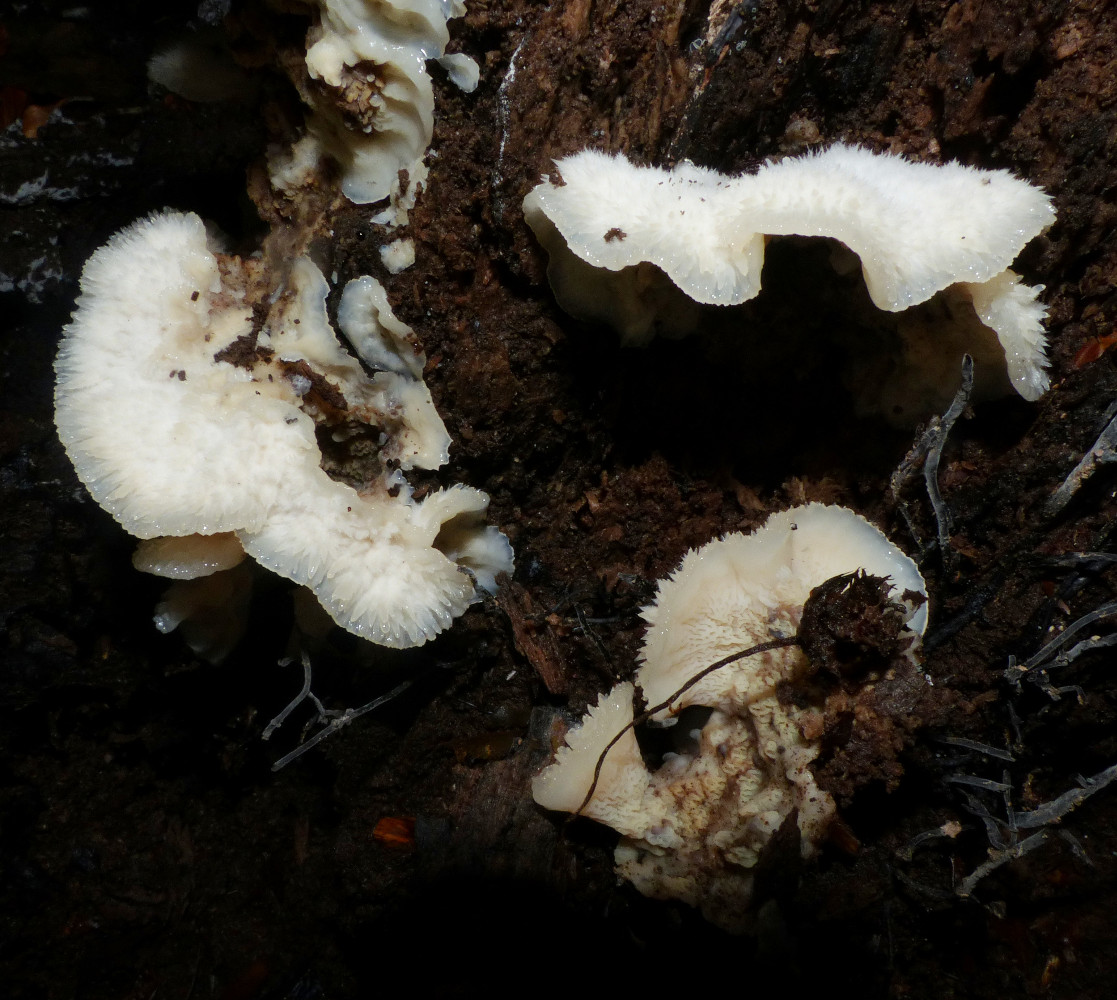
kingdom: Fungi
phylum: Basidiomycota
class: Agaricomycetes
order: Polyporales
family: Meruliaceae
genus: Phlebia
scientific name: Phlebia tremellosa
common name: bævrende åresvamp
